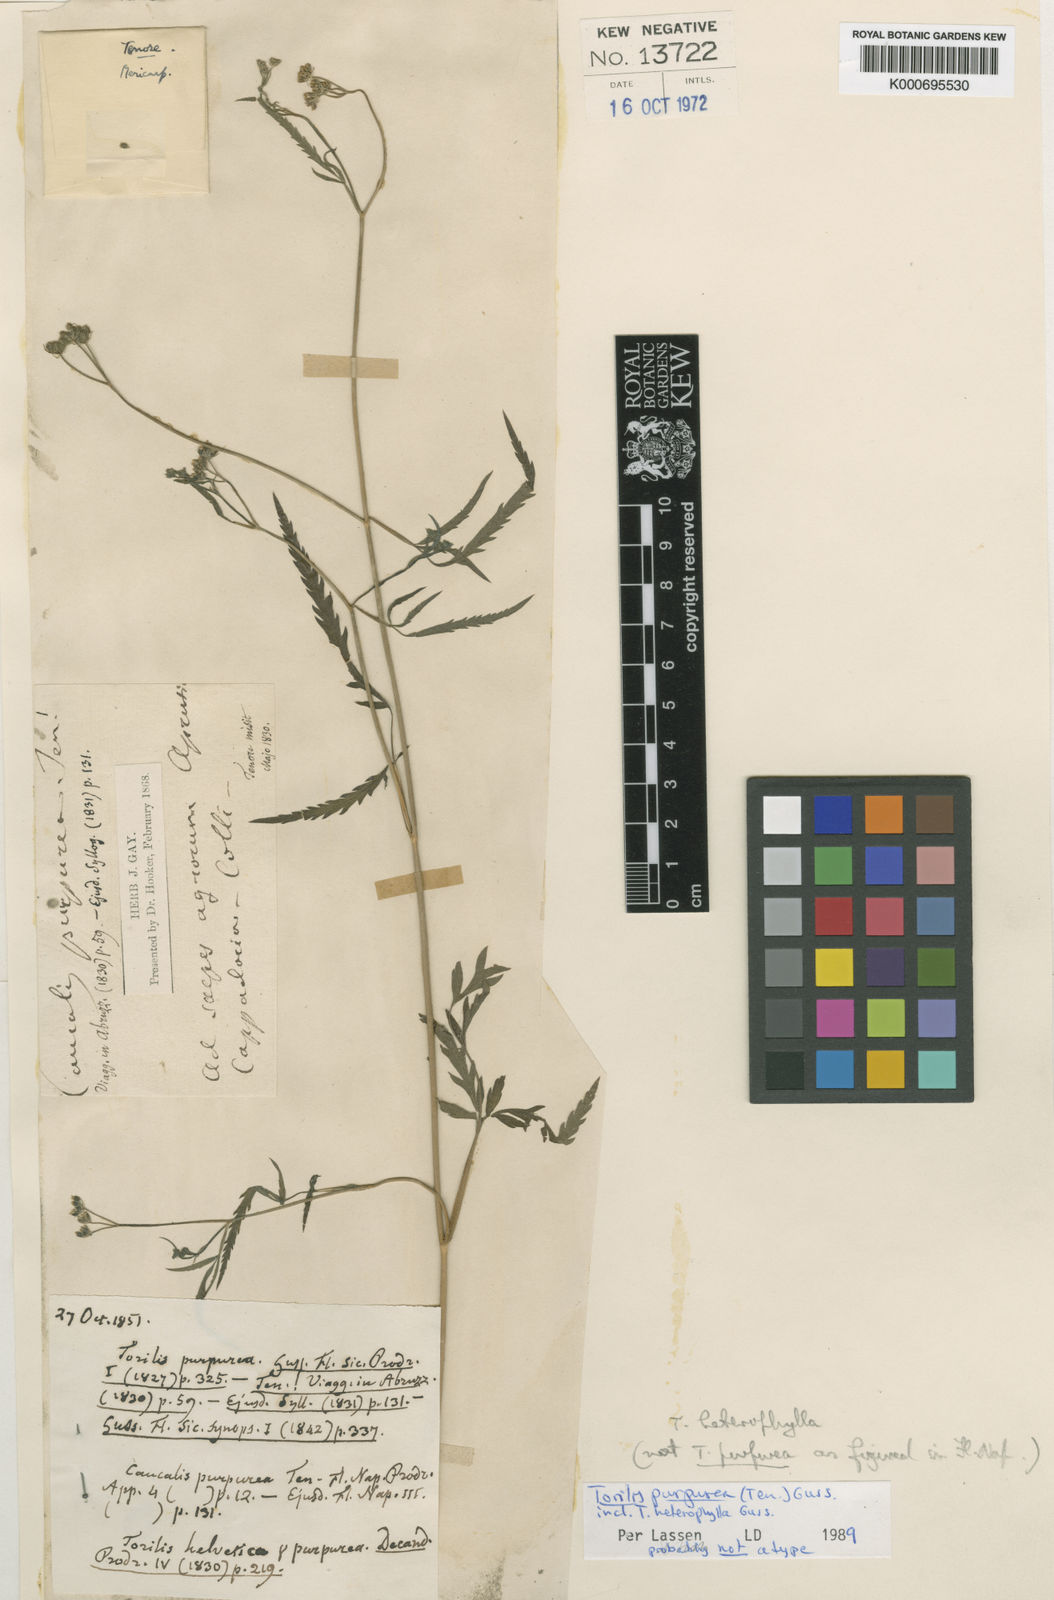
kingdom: Plantae
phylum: Tracheophyta
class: Magnoliopsida
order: Apiales
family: Apiaceae
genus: Torilis
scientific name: Torilis africana
